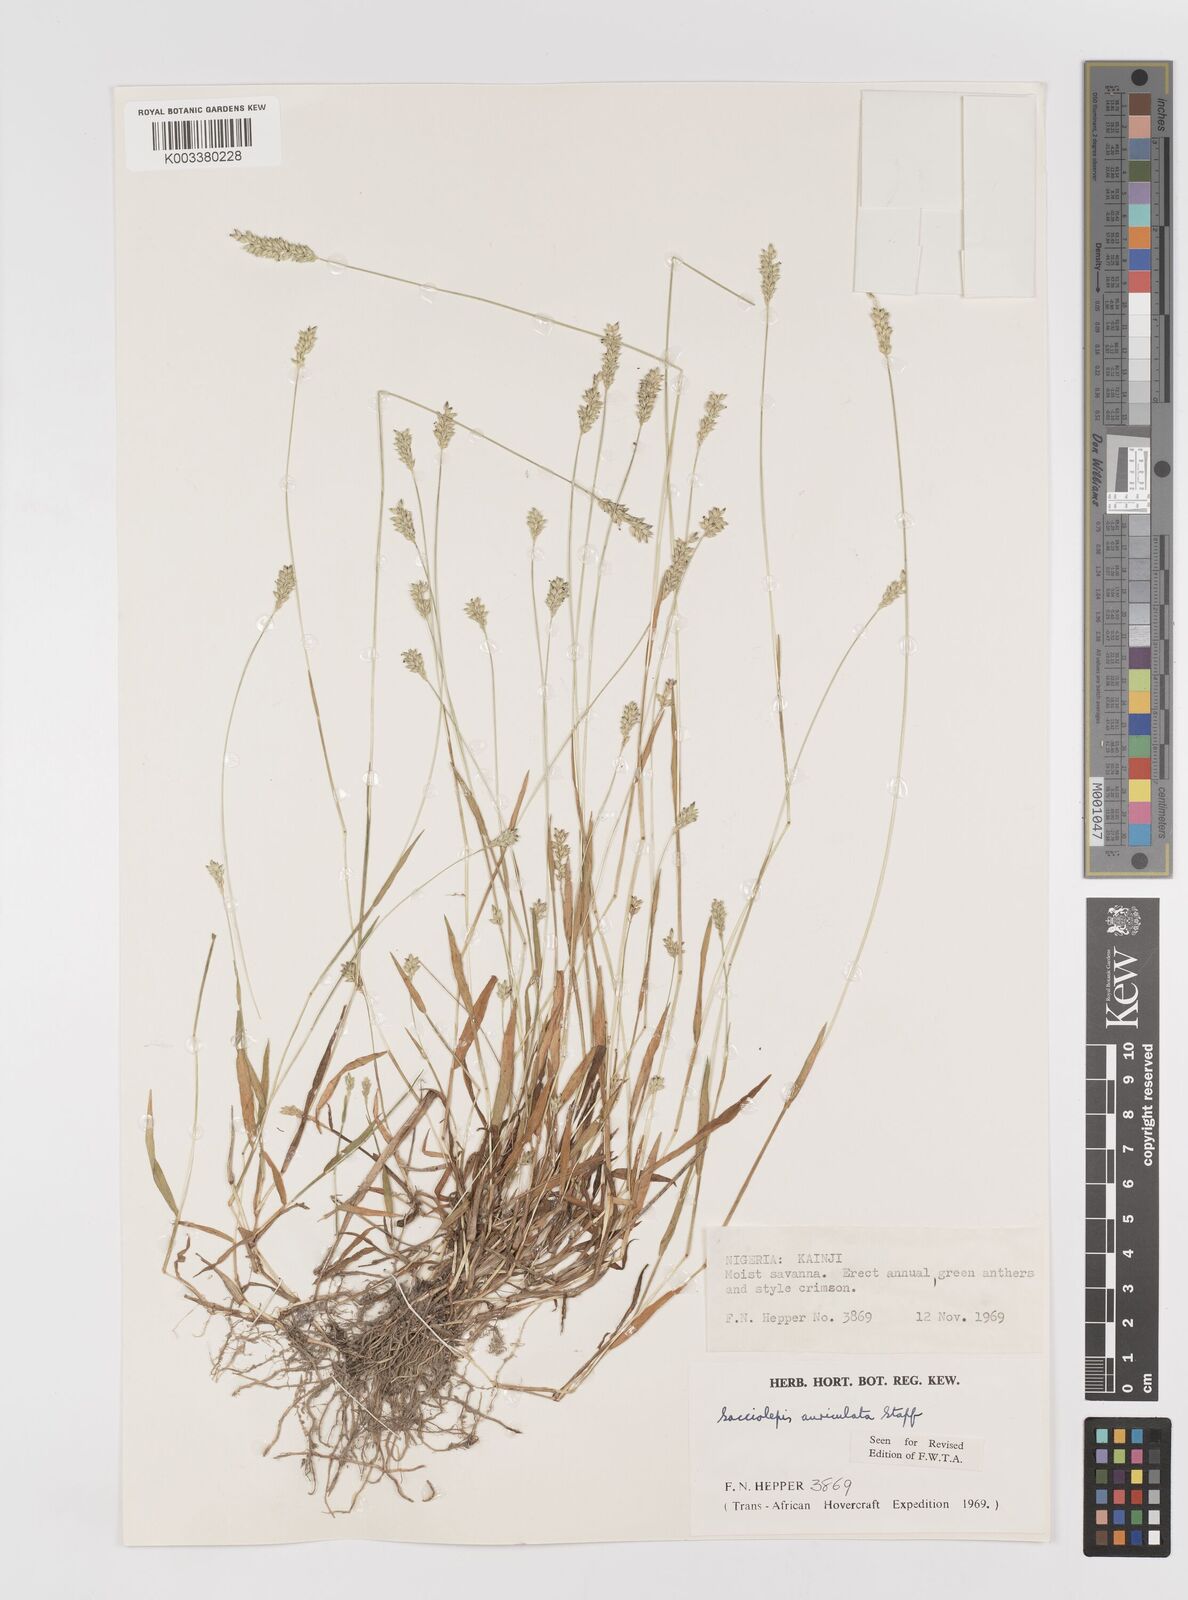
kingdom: Plantae
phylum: Tracheophyta
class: Liliopsida
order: Poales
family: Poaceae
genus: Sacciolepis
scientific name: Sacciolepis indica
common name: Glenwoodgrass
